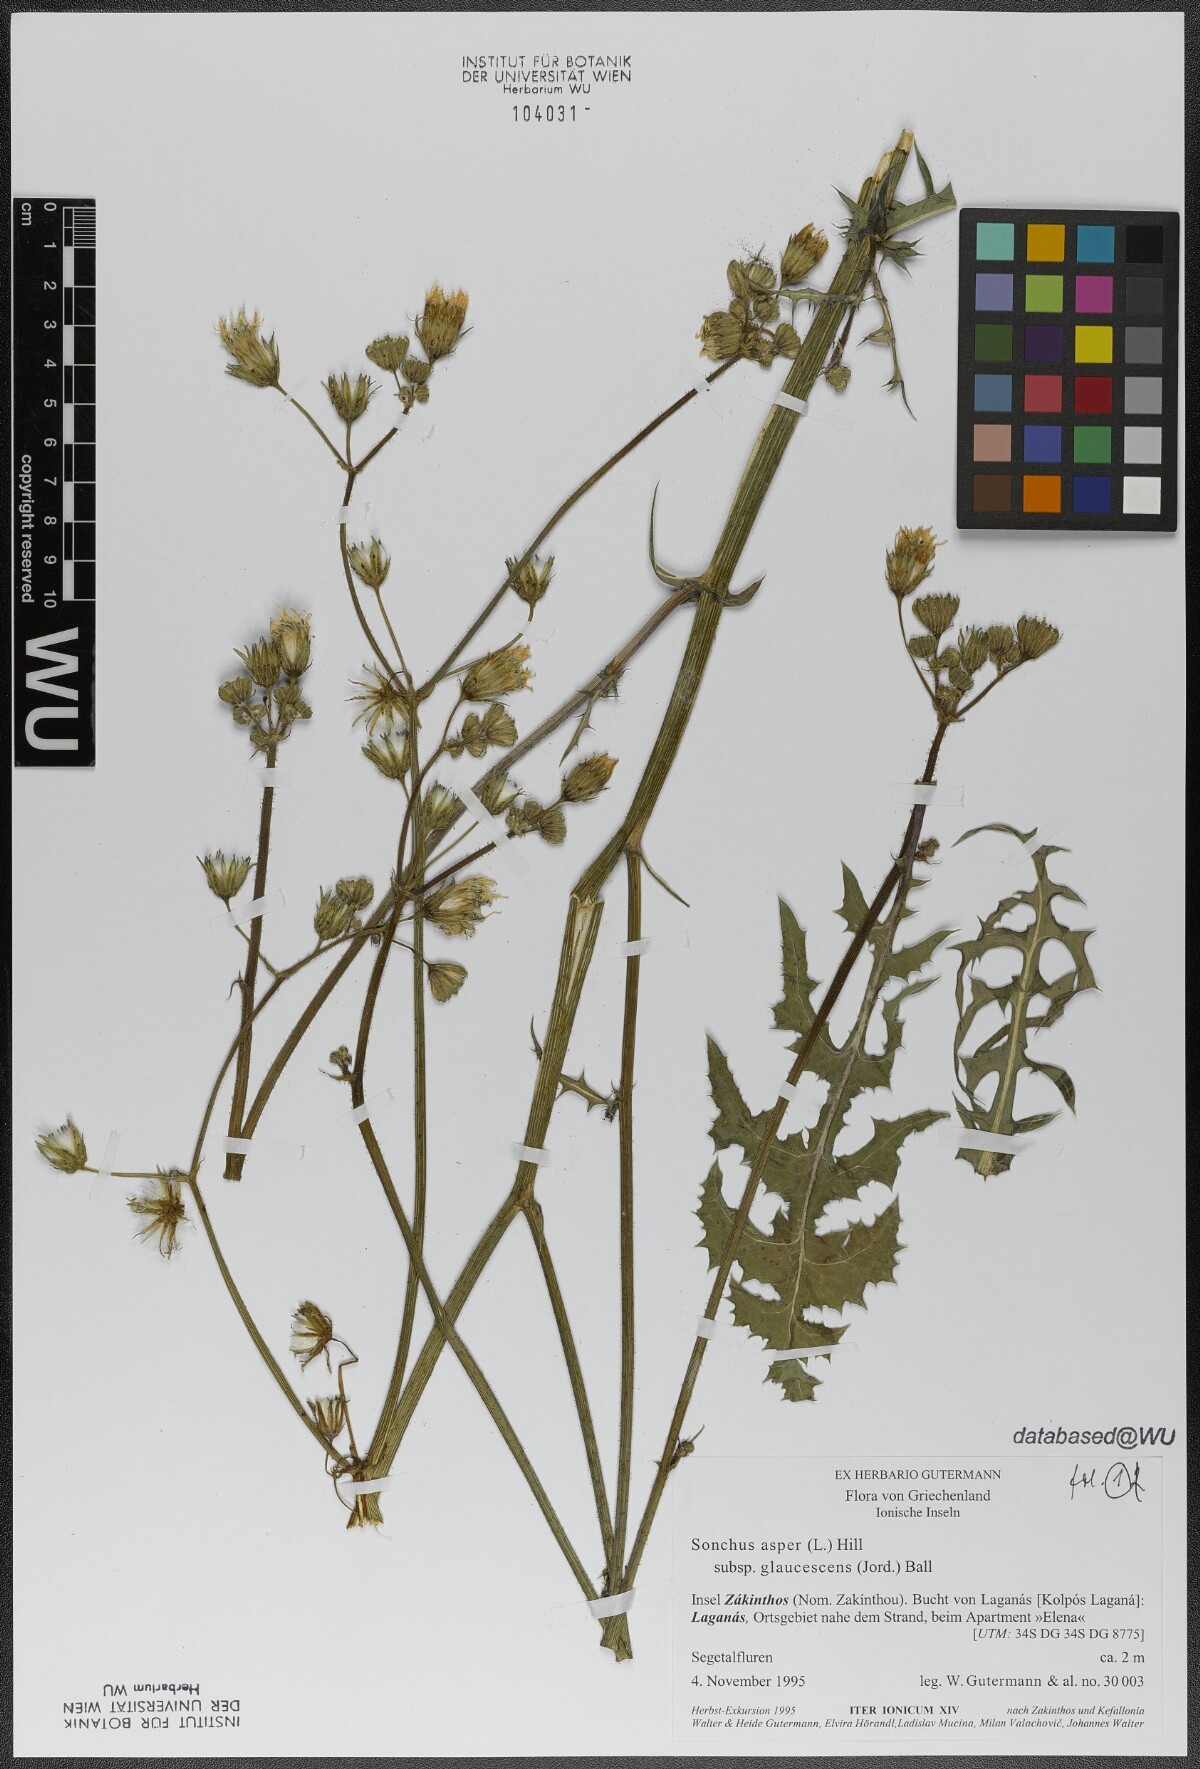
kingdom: Plantae
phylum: Tracheophyta
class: Magnoliopsida
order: Asterales
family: Asteraceae
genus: Sonchus
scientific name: Sonchus asper
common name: Prickly sow-thistle
